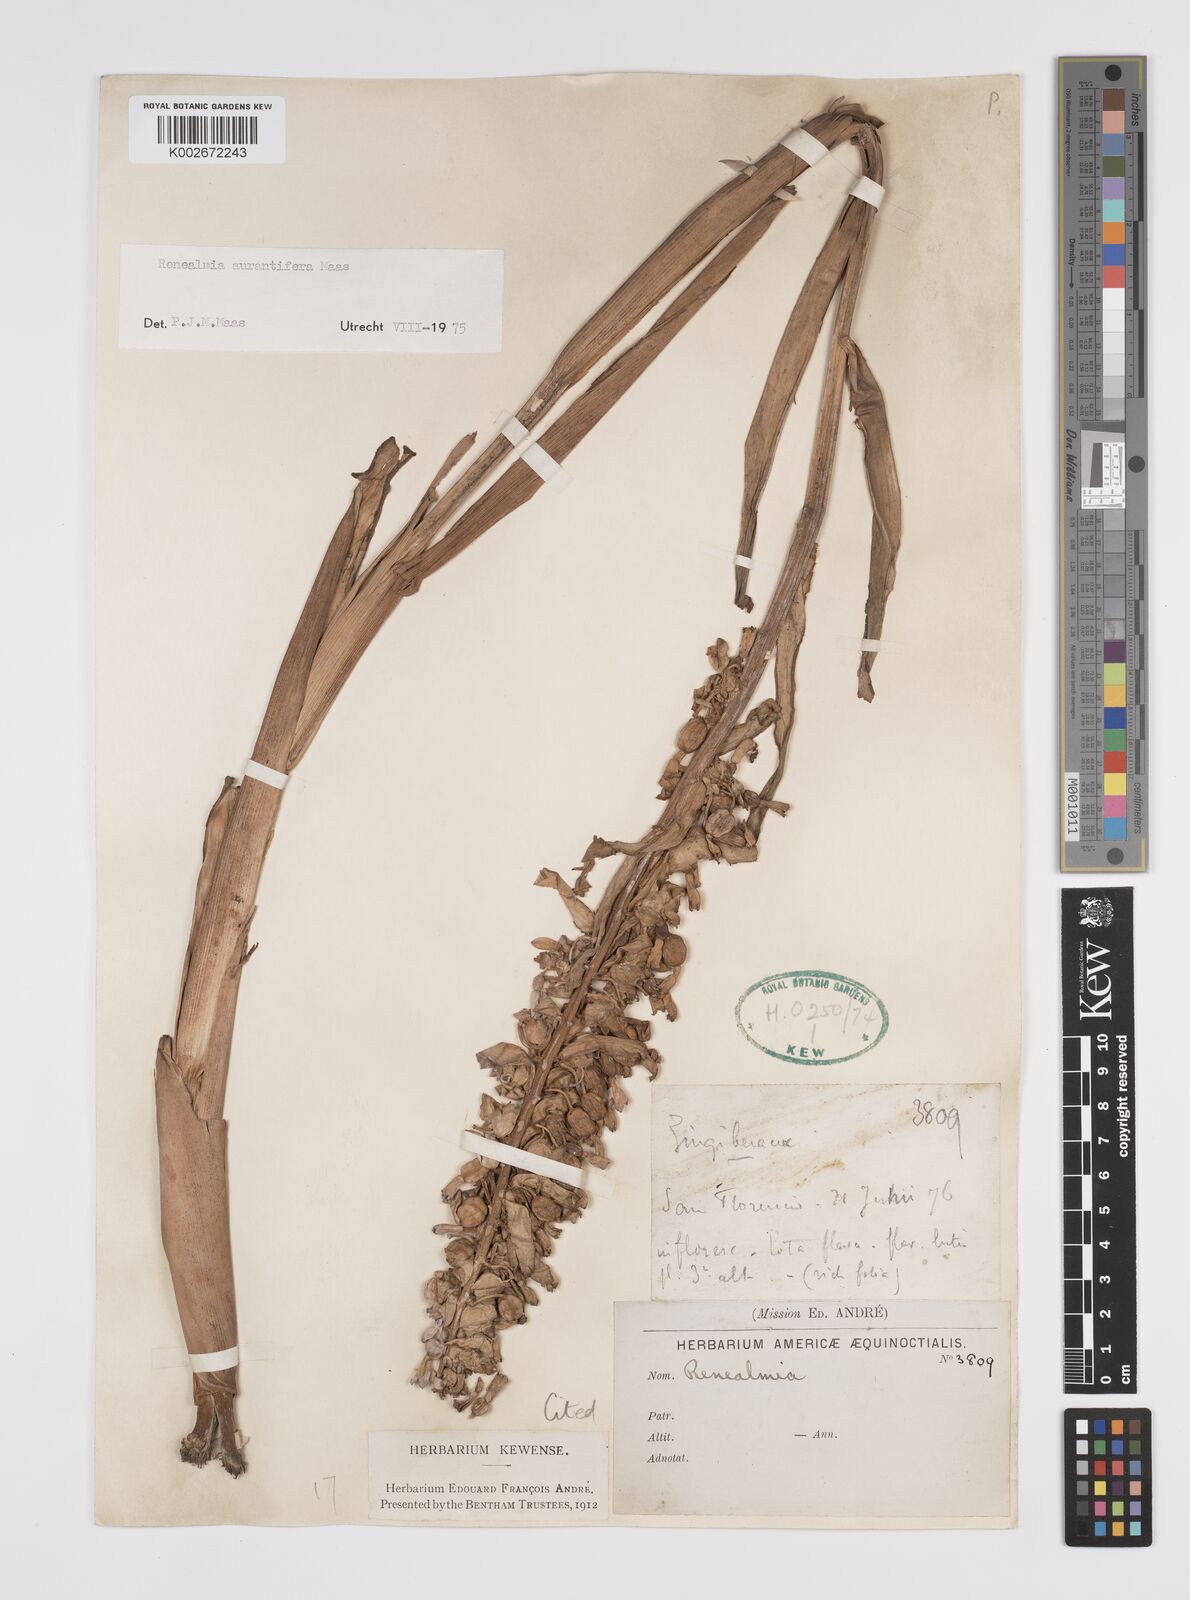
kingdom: Plantae
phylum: Tracheophyta
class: Liliopsida
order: Zingiberales
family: Zingiberaceae
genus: Renealmia
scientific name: Renealmia aurantiifera
